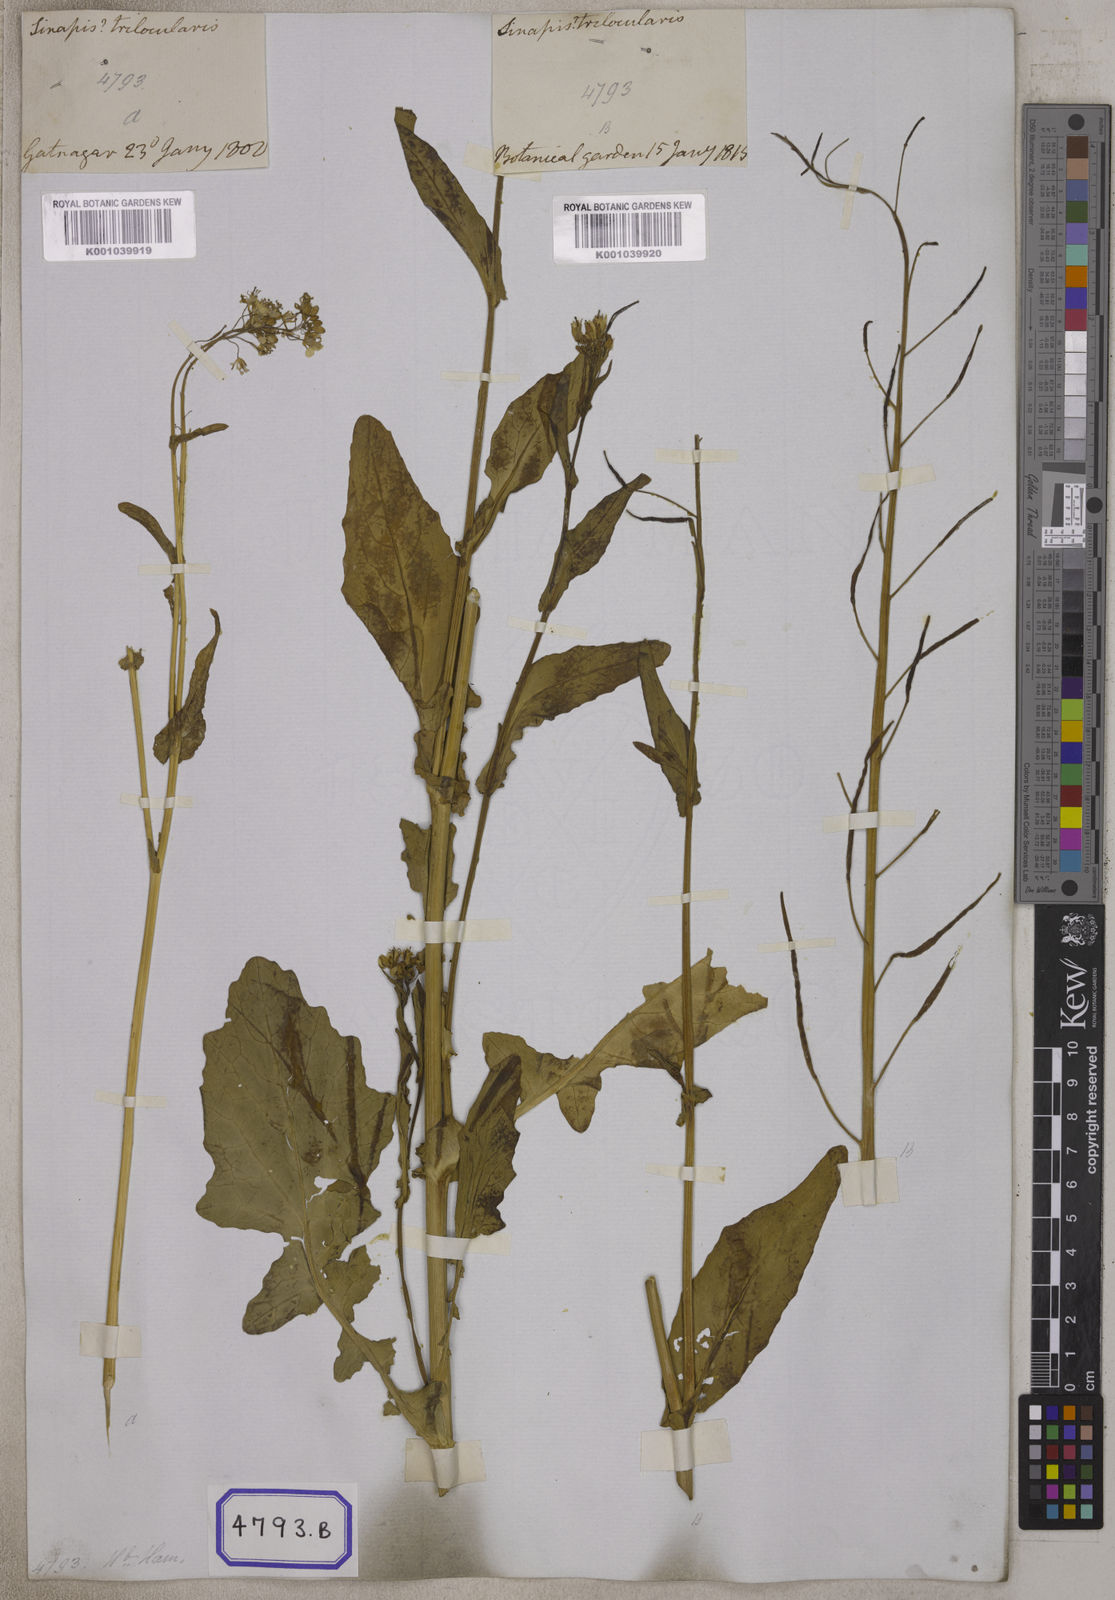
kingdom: Plantae
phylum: Tracheophyta
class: Magnoliopsida
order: Brassicales
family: Brassicaceae
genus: Sinapis
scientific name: Sinapis
